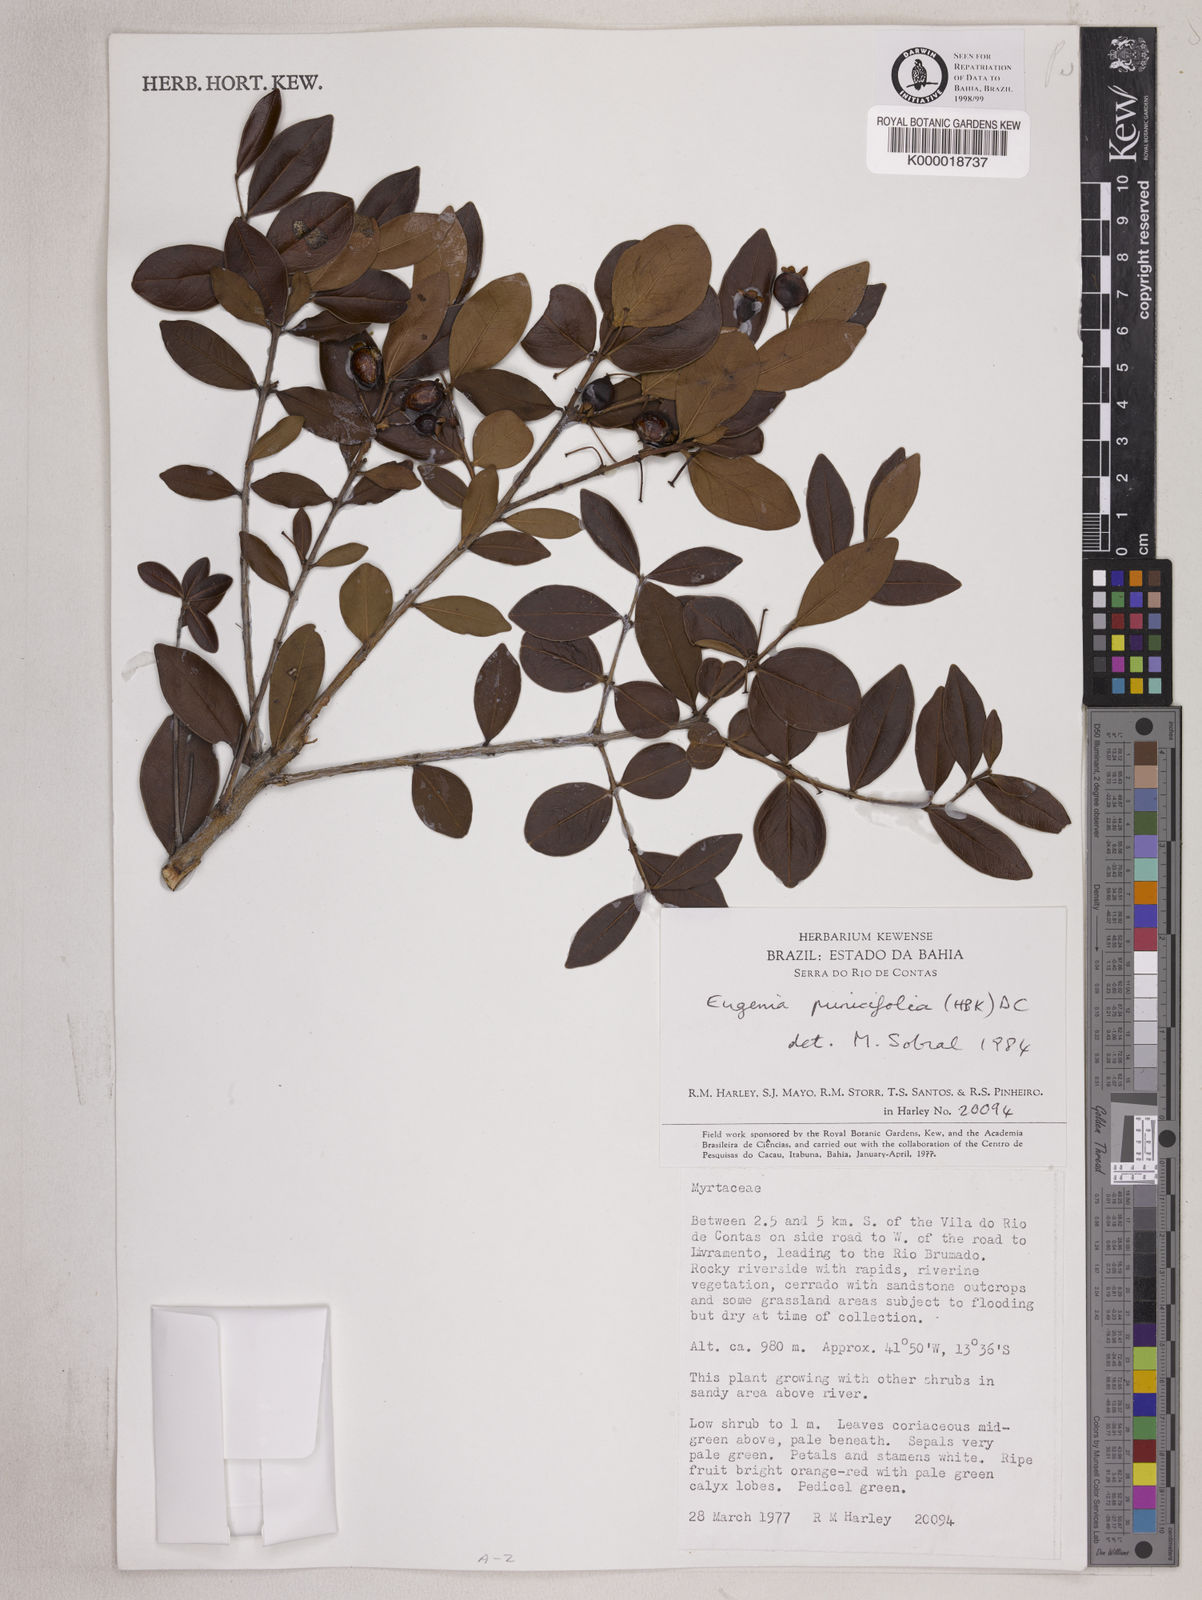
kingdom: Plantae
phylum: Tracheophyta
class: Magnoliopsida
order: Myrtales
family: Myrtaceae
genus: Eugenia
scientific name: Eugenia punicifolia
